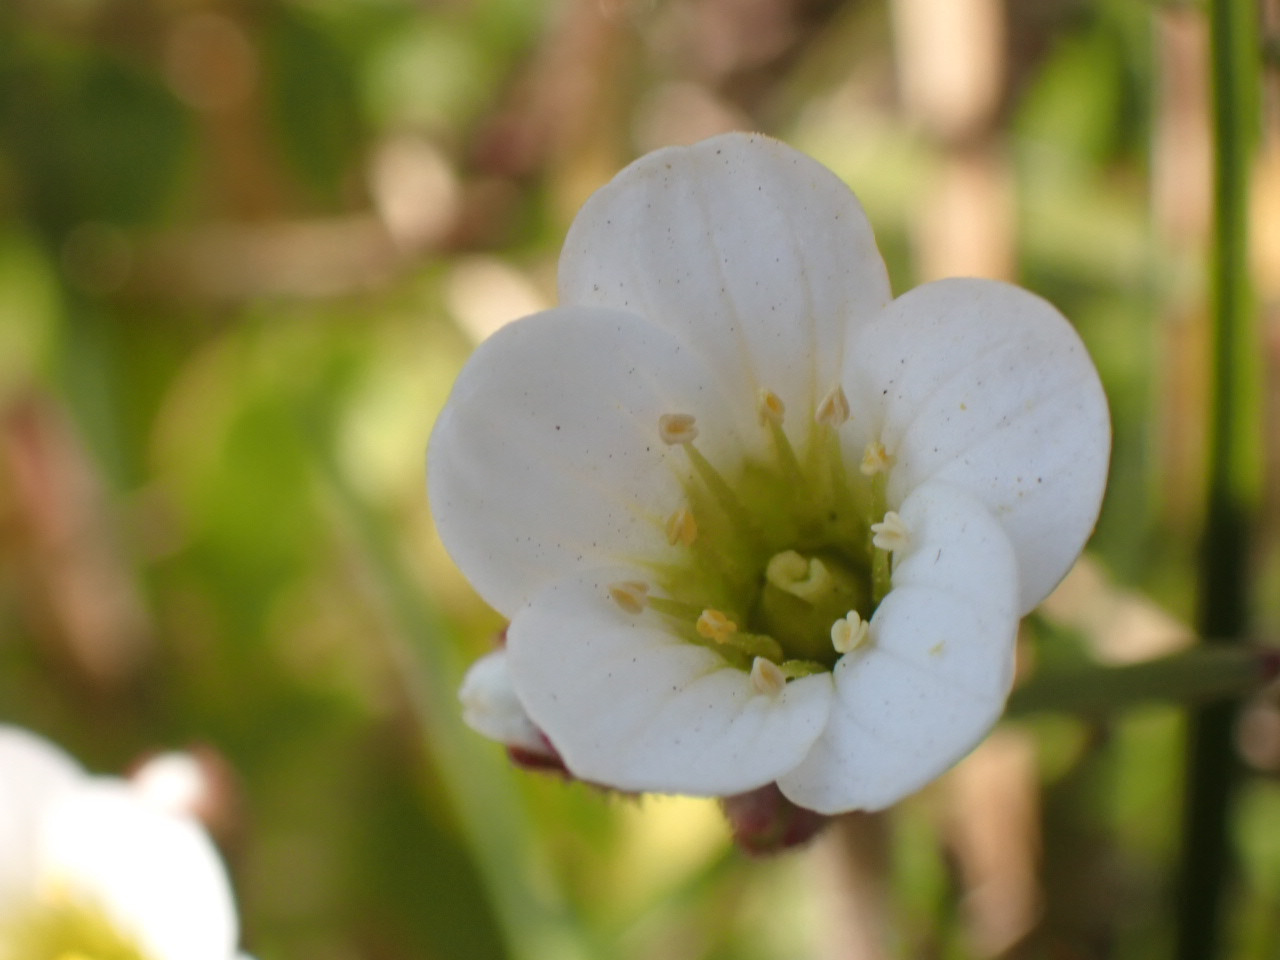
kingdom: Plantae
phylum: Tracheophyta
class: Magnoliopsida
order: Saxifragales
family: Saxifragaceae
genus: Saxifraga
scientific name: Saxifraga granulata
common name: Kornet stenbræk
